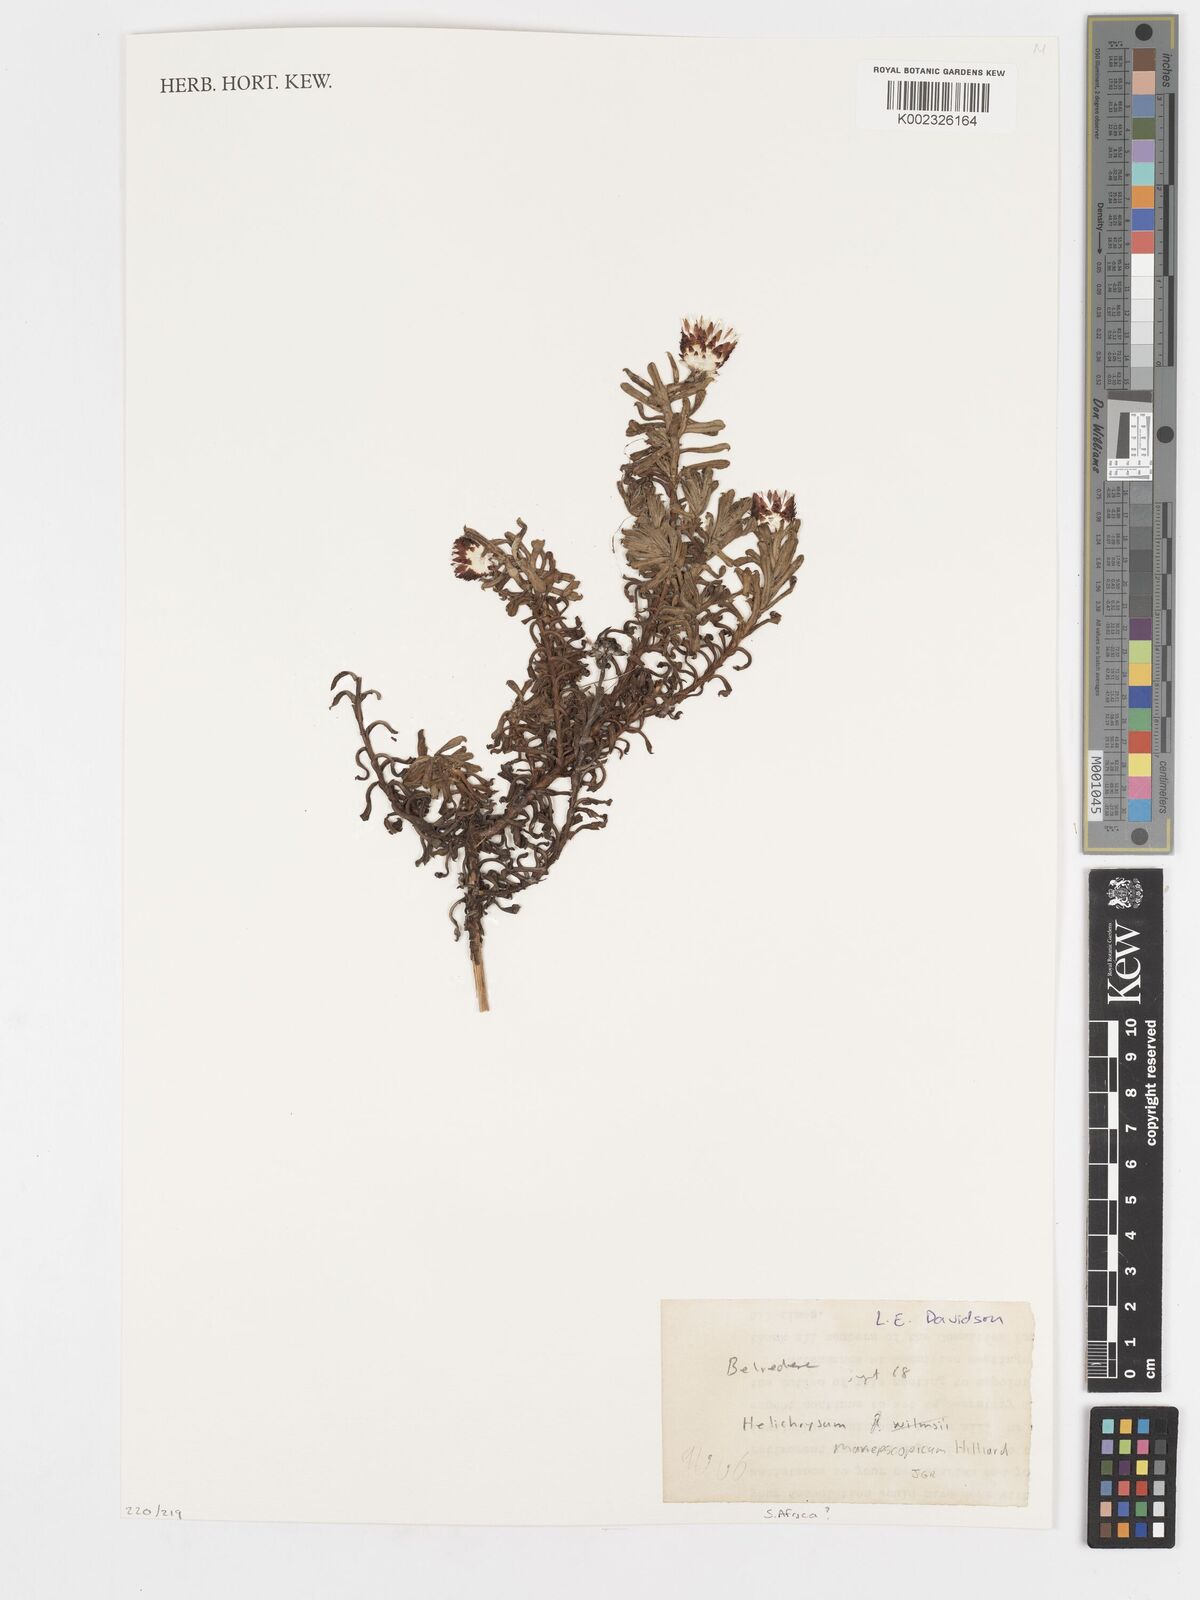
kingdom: Plantae
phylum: Tracheophyta
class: Magnoliopsida
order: Asterales
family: Asteraceae
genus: Helichrysum
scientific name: Helichrysum mariepscopicum
